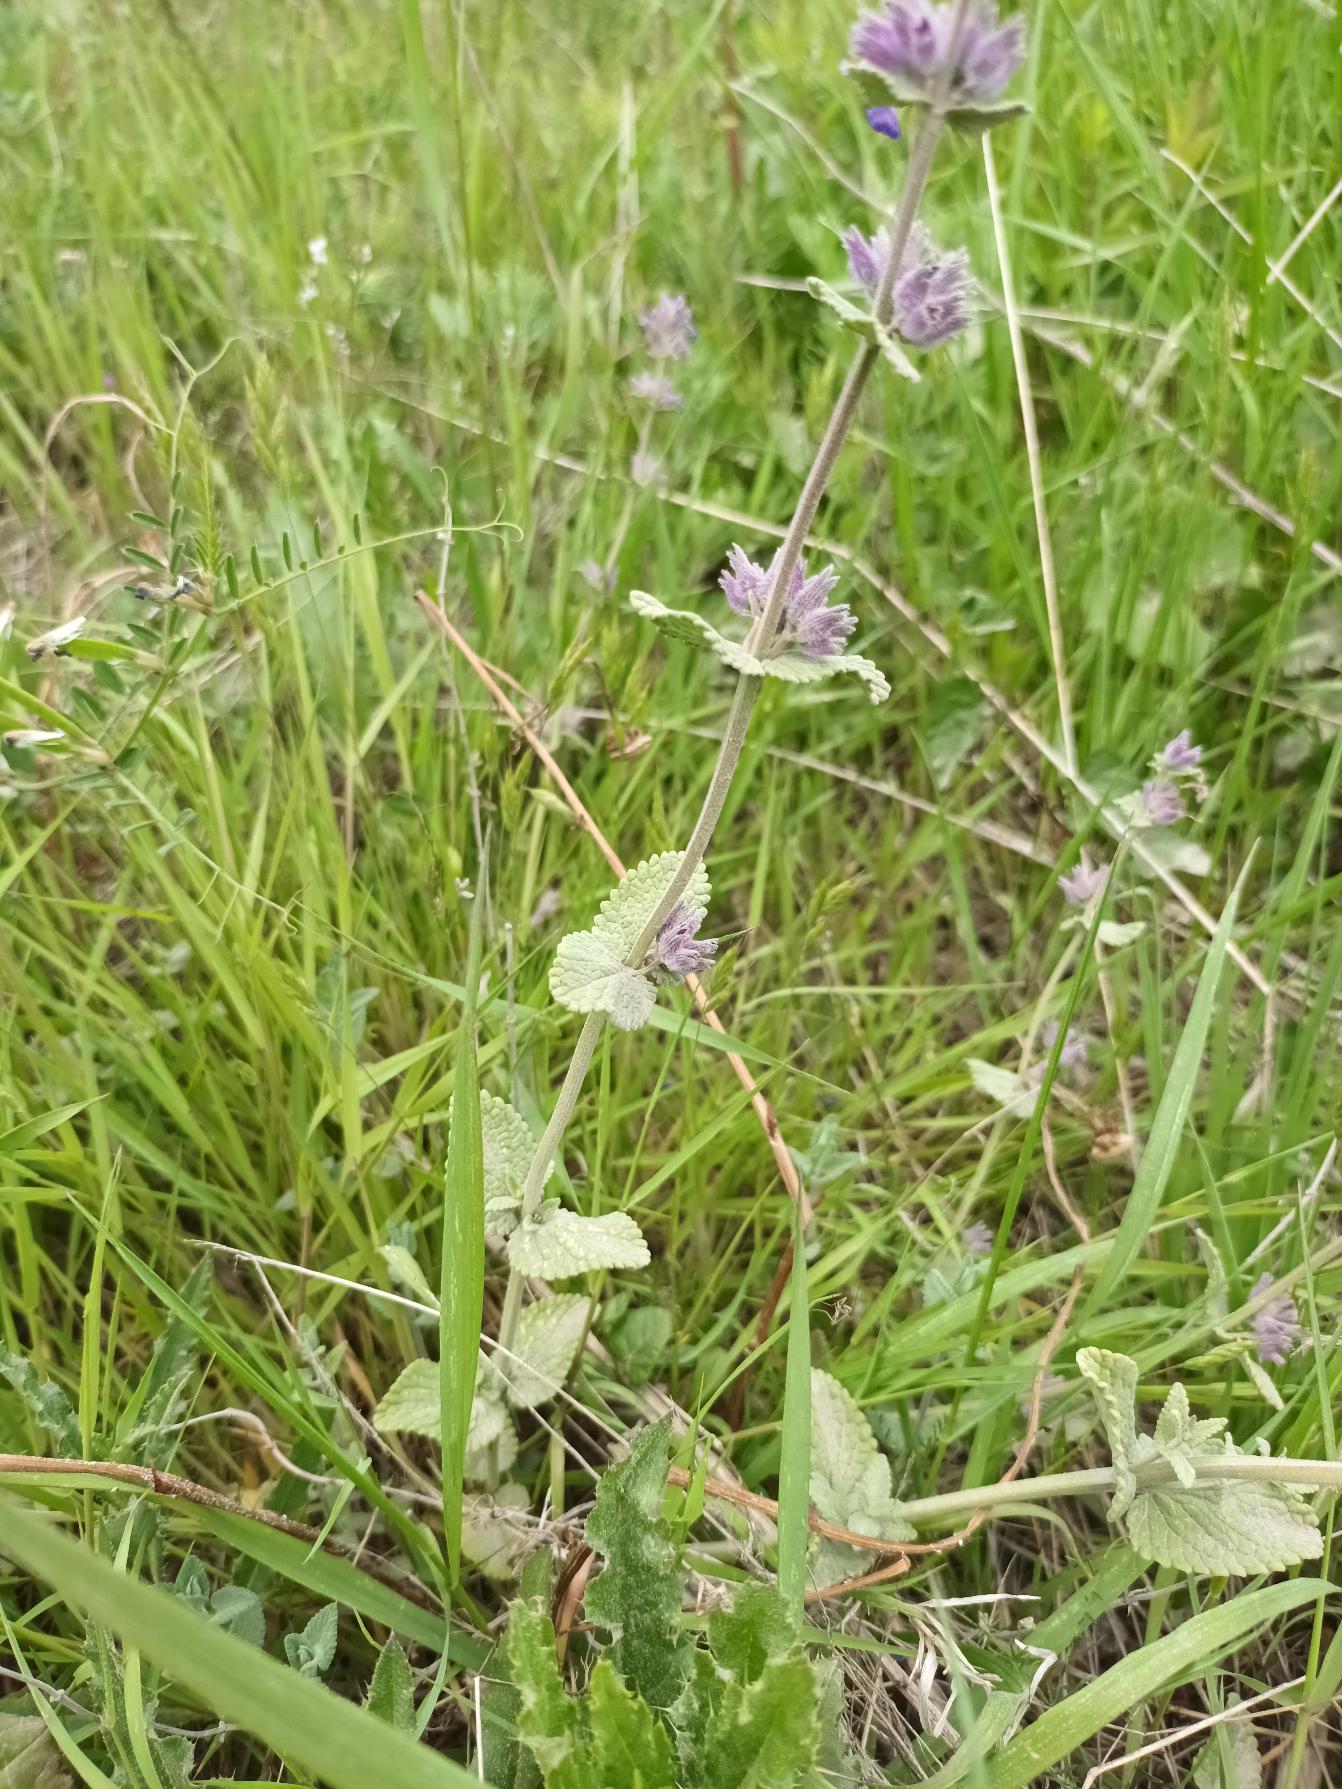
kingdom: Plantae
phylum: Tracheophyta
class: Magnoliopsida
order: Lamiales
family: Lamiaceae
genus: Nepeta
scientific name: Nepeta racemosa
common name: Ægte blåkant
